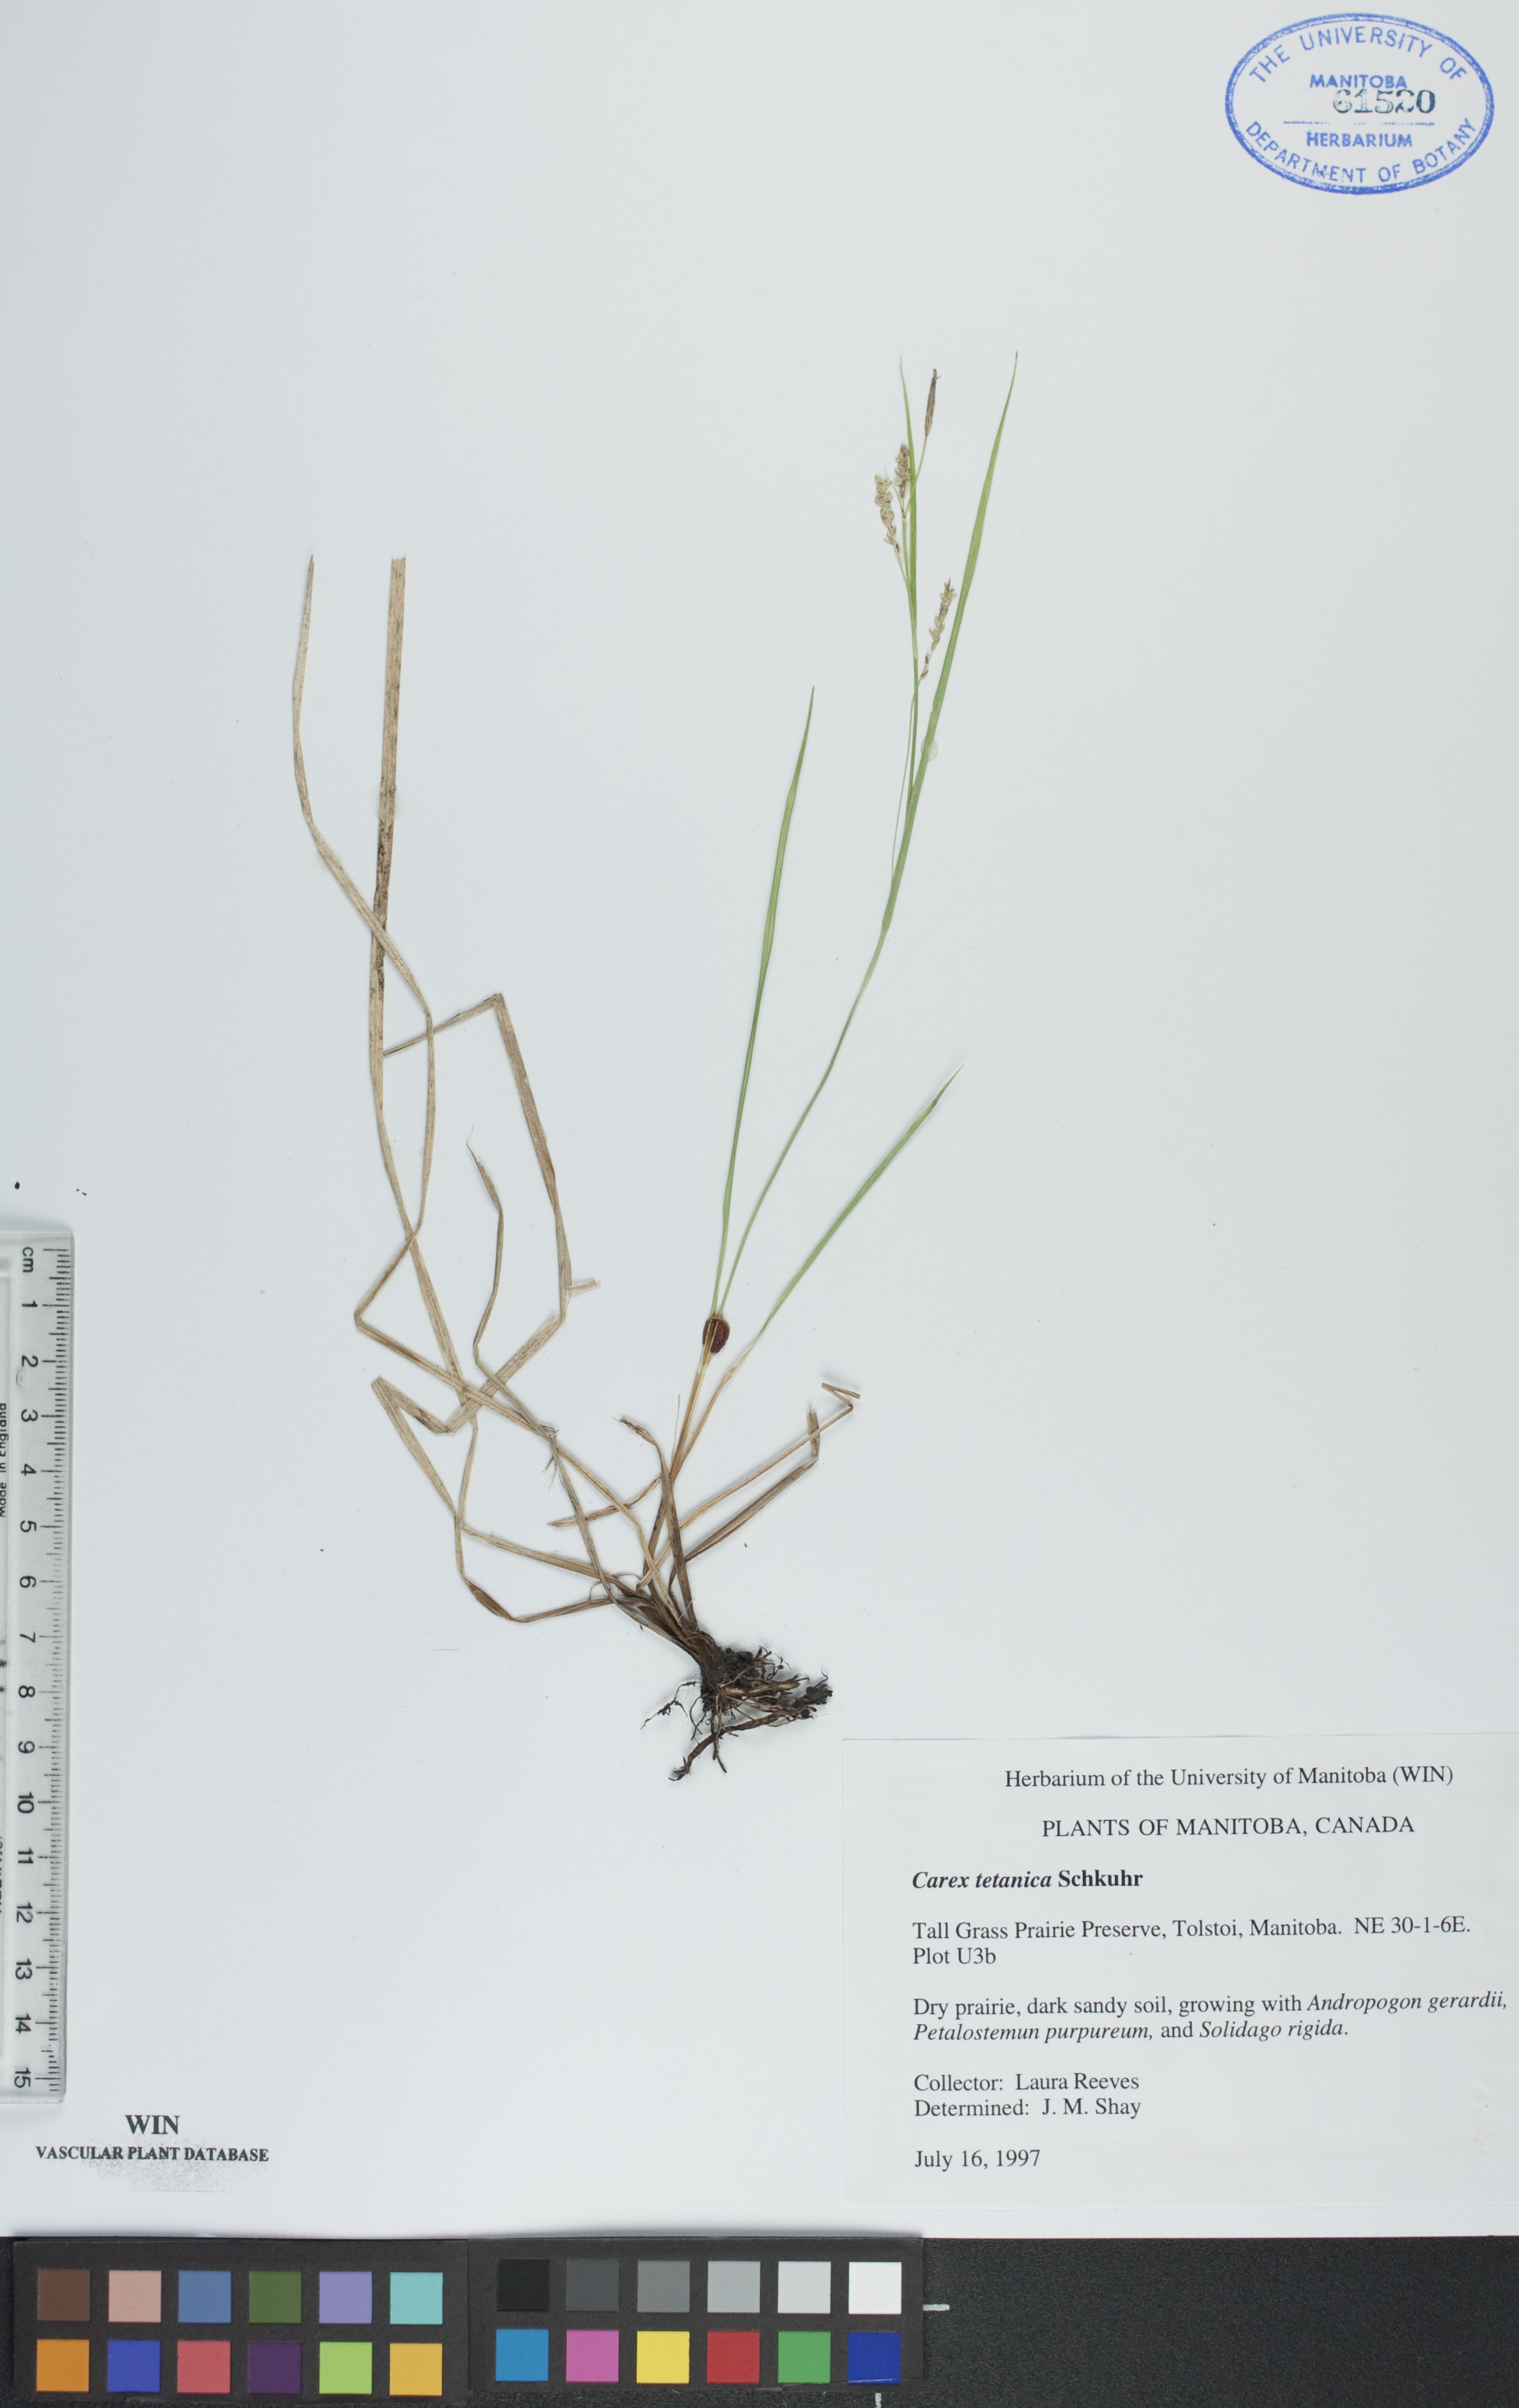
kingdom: Plantae
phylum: Tracheophyta
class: Liliopsida
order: Poales
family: Cyperaceae
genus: Carex
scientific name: Carex tetanica
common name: Rigid sedge
